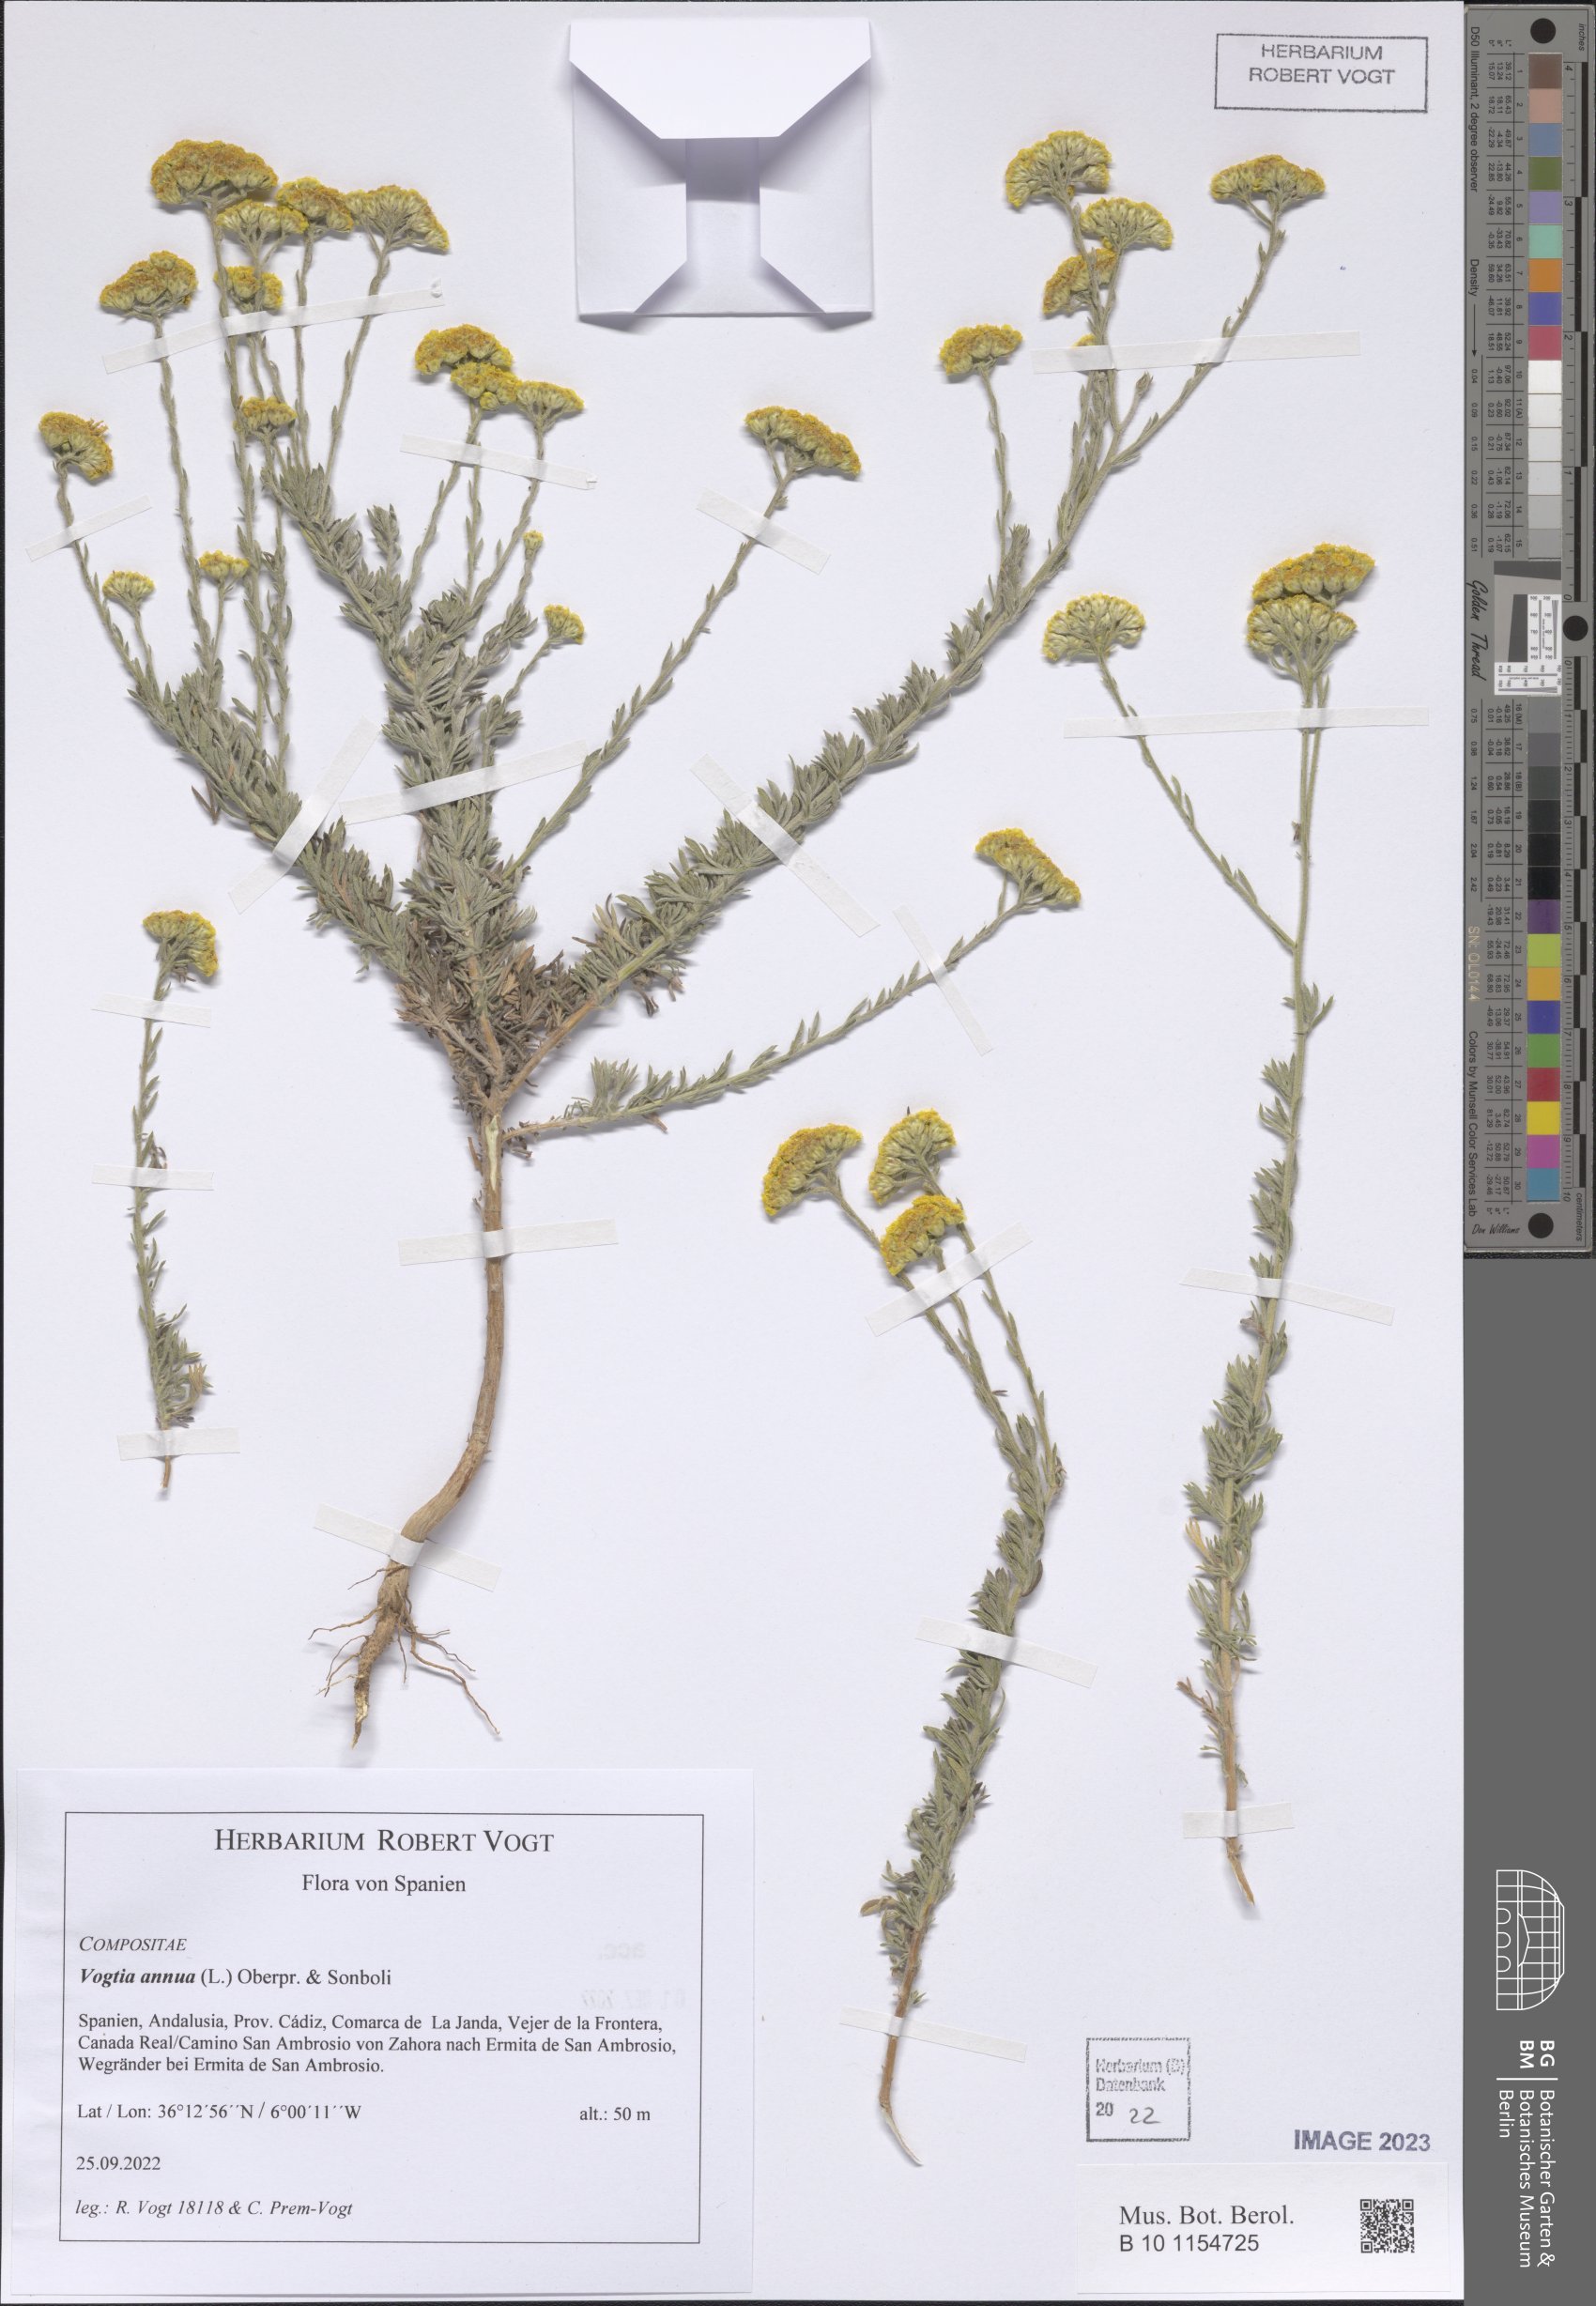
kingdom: Plantae
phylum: Tracheophyta
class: Magnoliopsida
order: Asterales
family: Asteraceae
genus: Vogtia
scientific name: Vogtia annua
